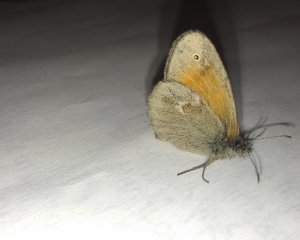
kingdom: Animalia
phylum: Arthropoda
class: Insecta
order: Lepidoptera
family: Nymphalidae
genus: Coenonympha
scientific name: Coenonympha tullia
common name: Large Heath
